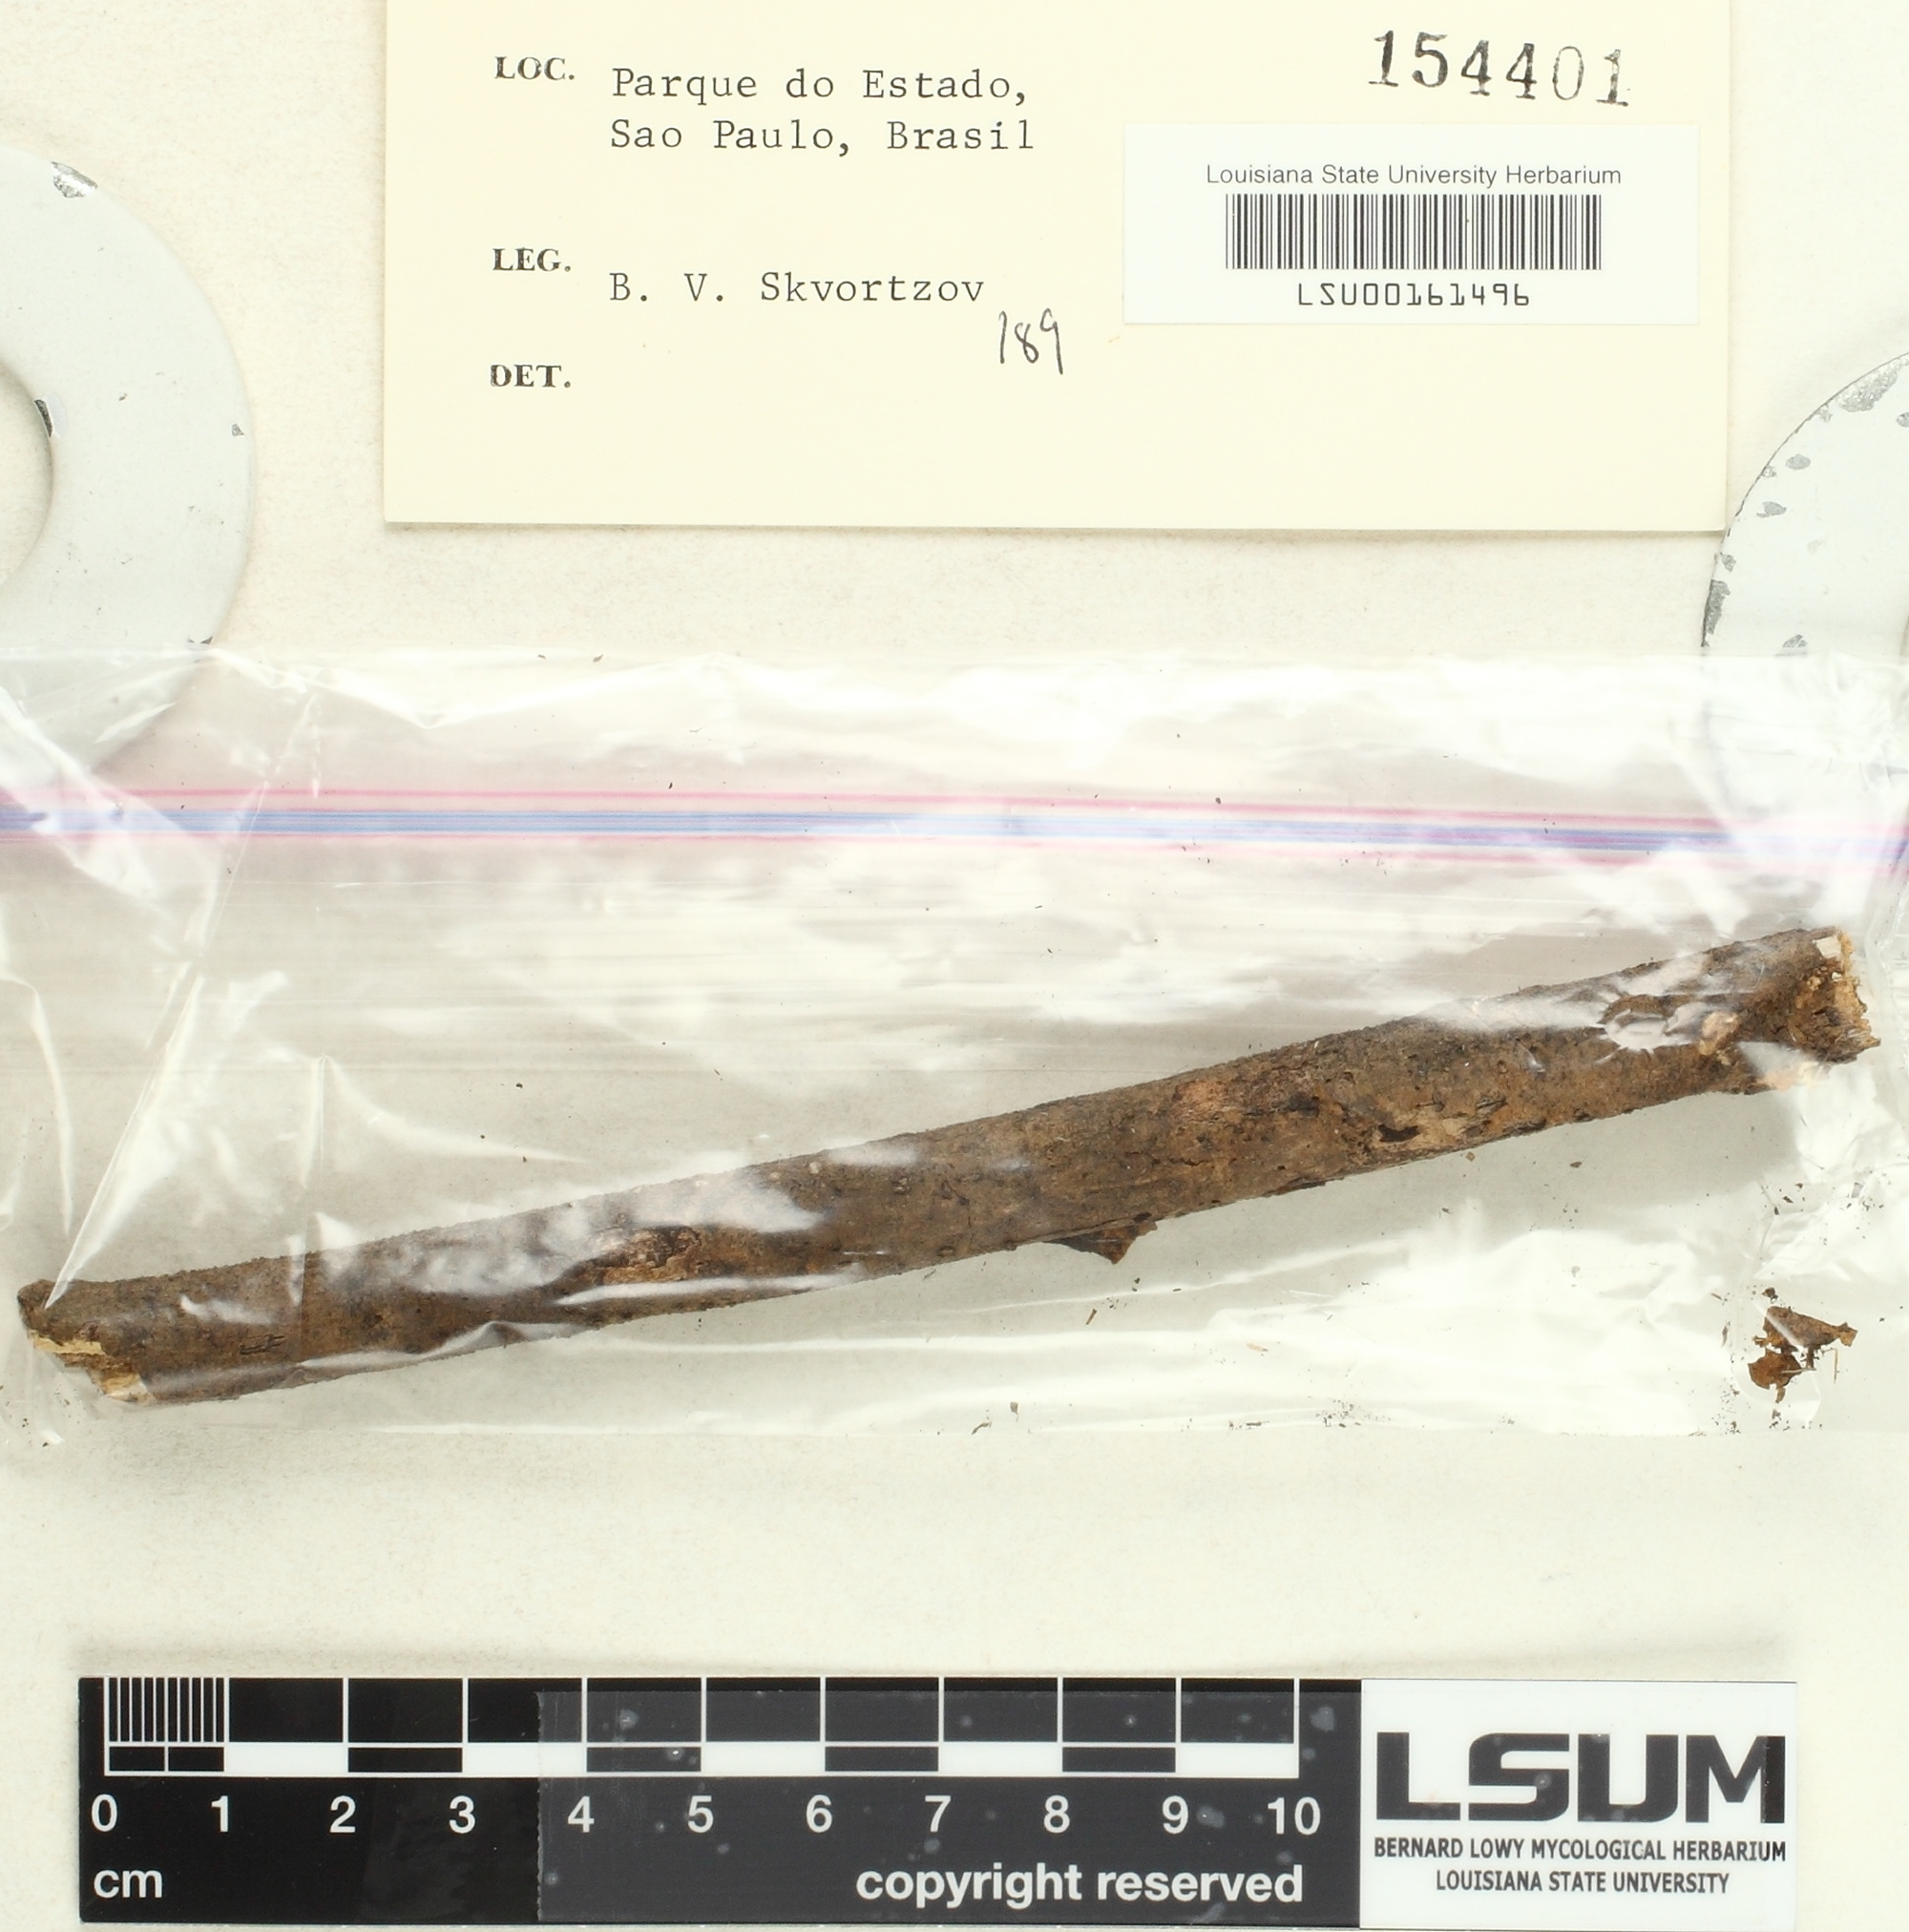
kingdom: Fungi
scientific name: Fungi
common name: Fungi
